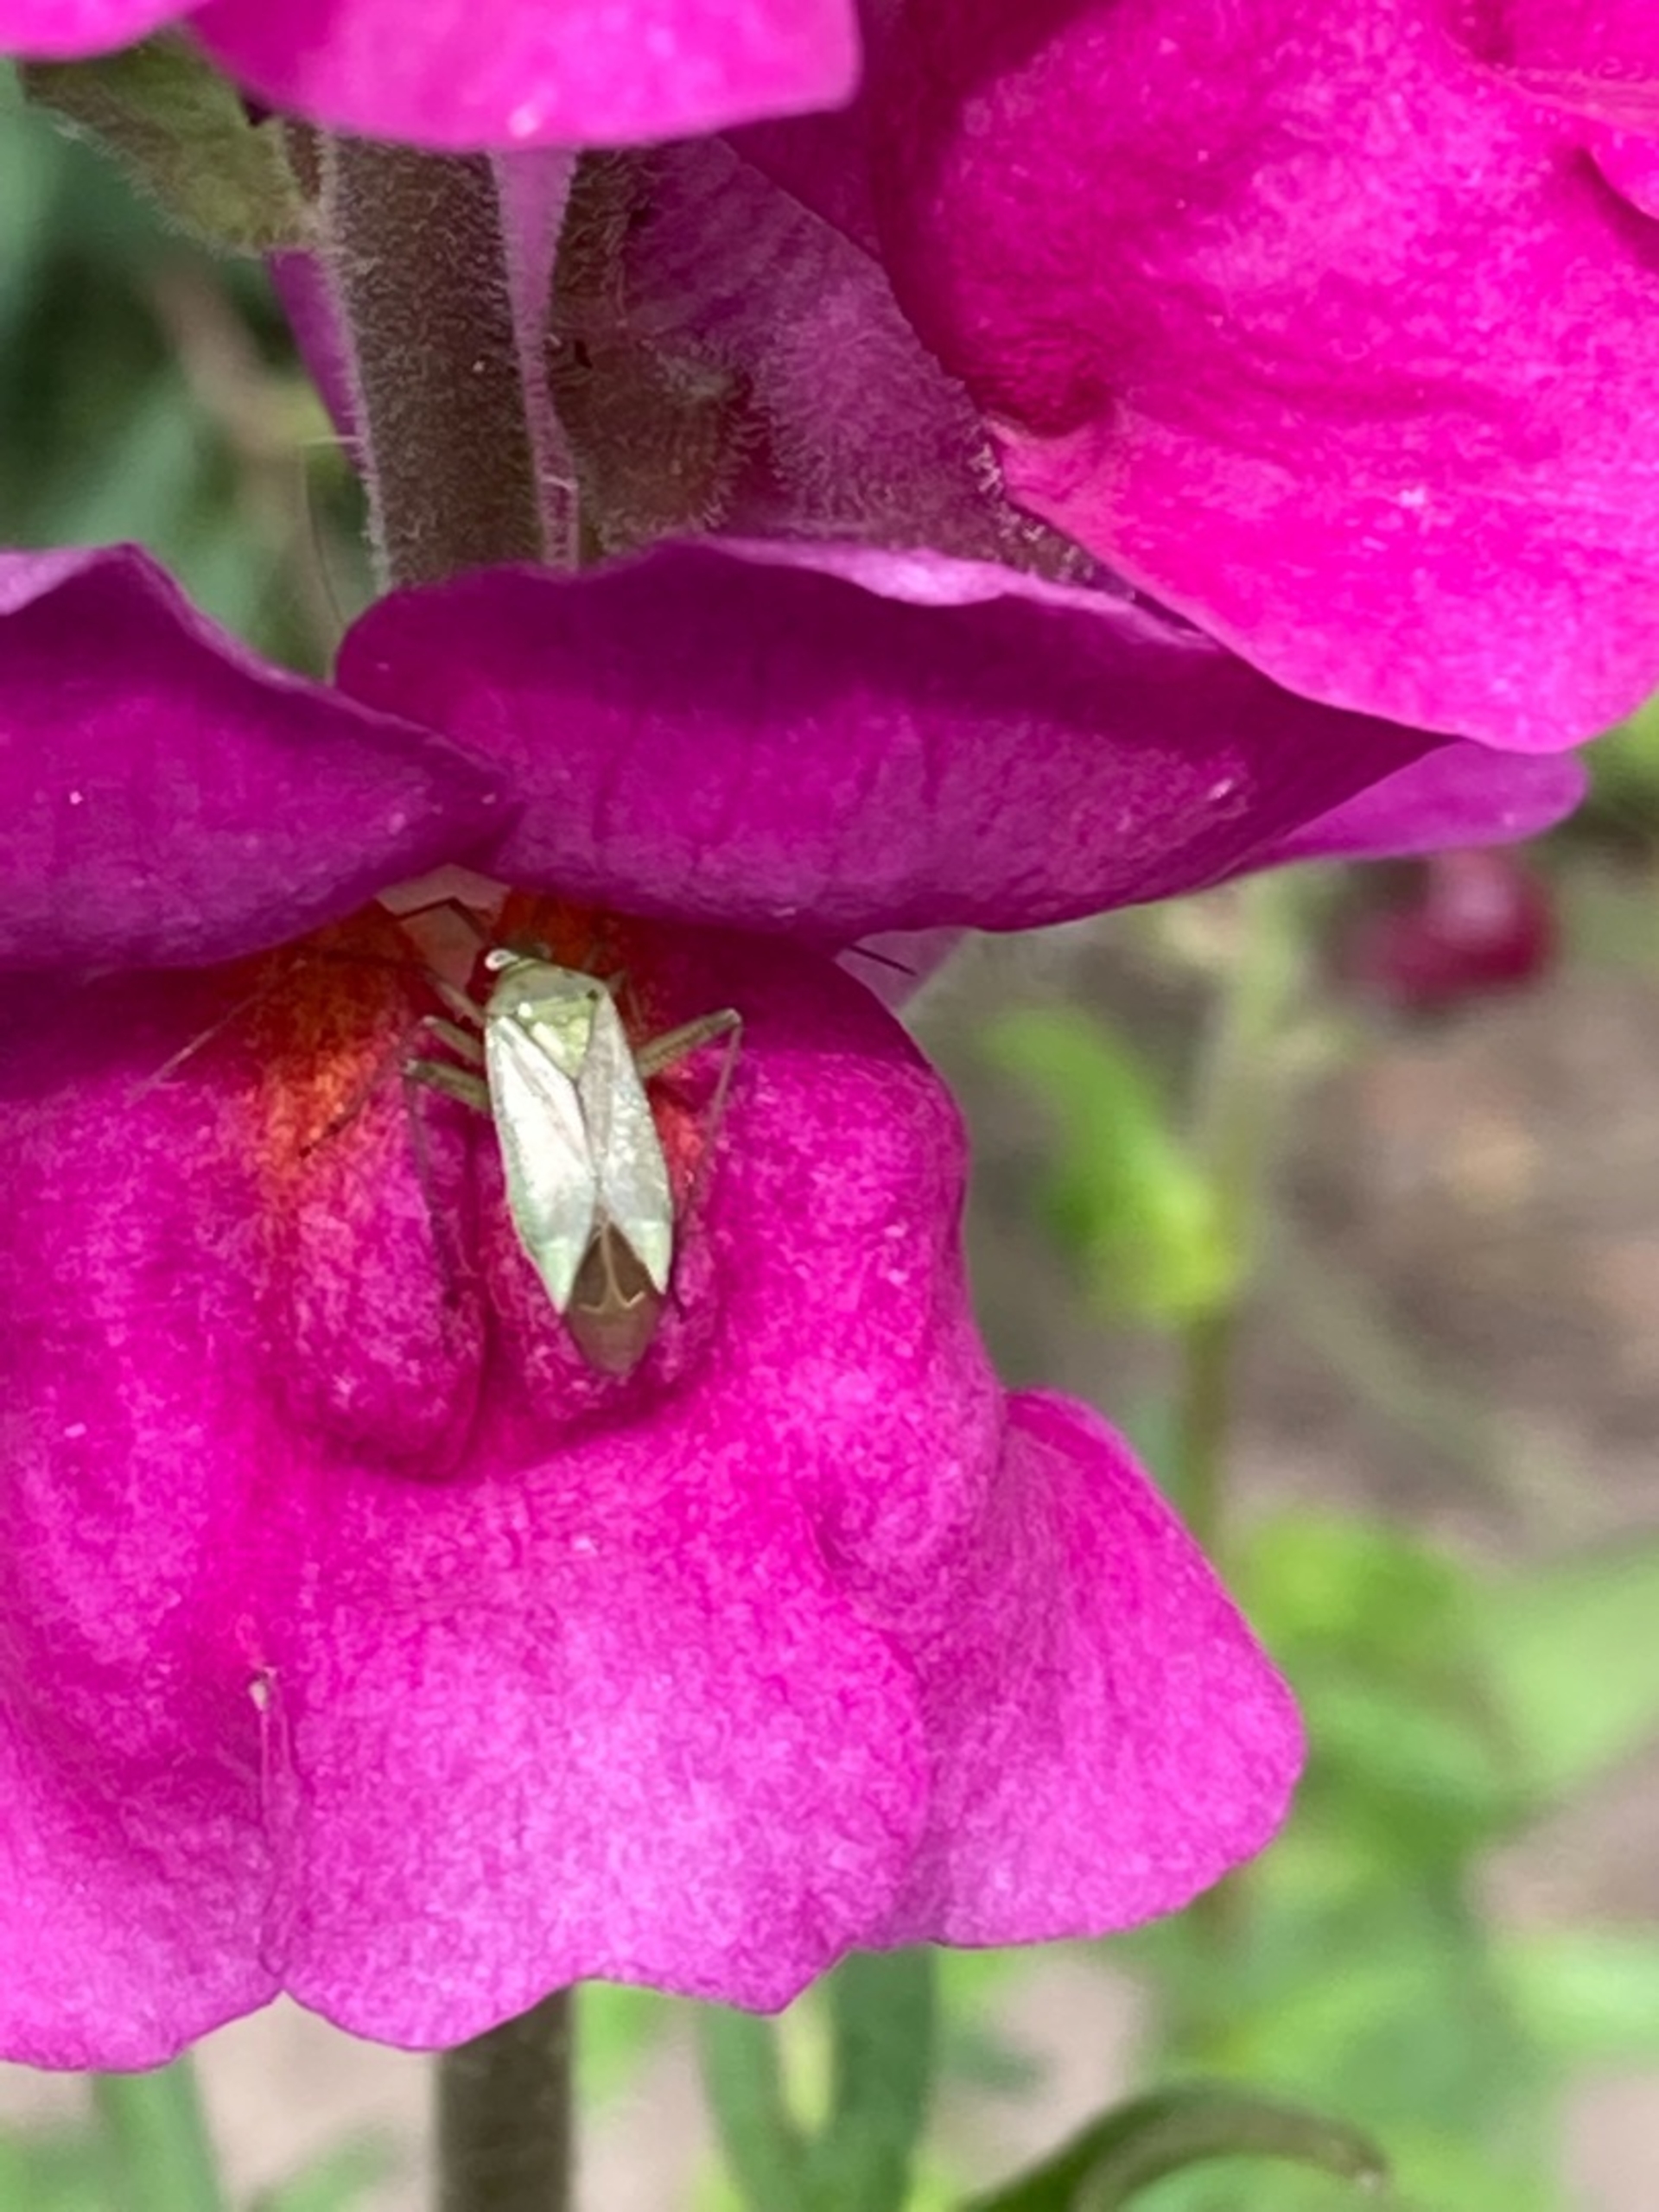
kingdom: Animalia
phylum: Arthropoda
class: Insecta
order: Hemiptera
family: Miridae
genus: Closterotomus
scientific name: Closterotomus norvegicus
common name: Toplettet bederoetæge
